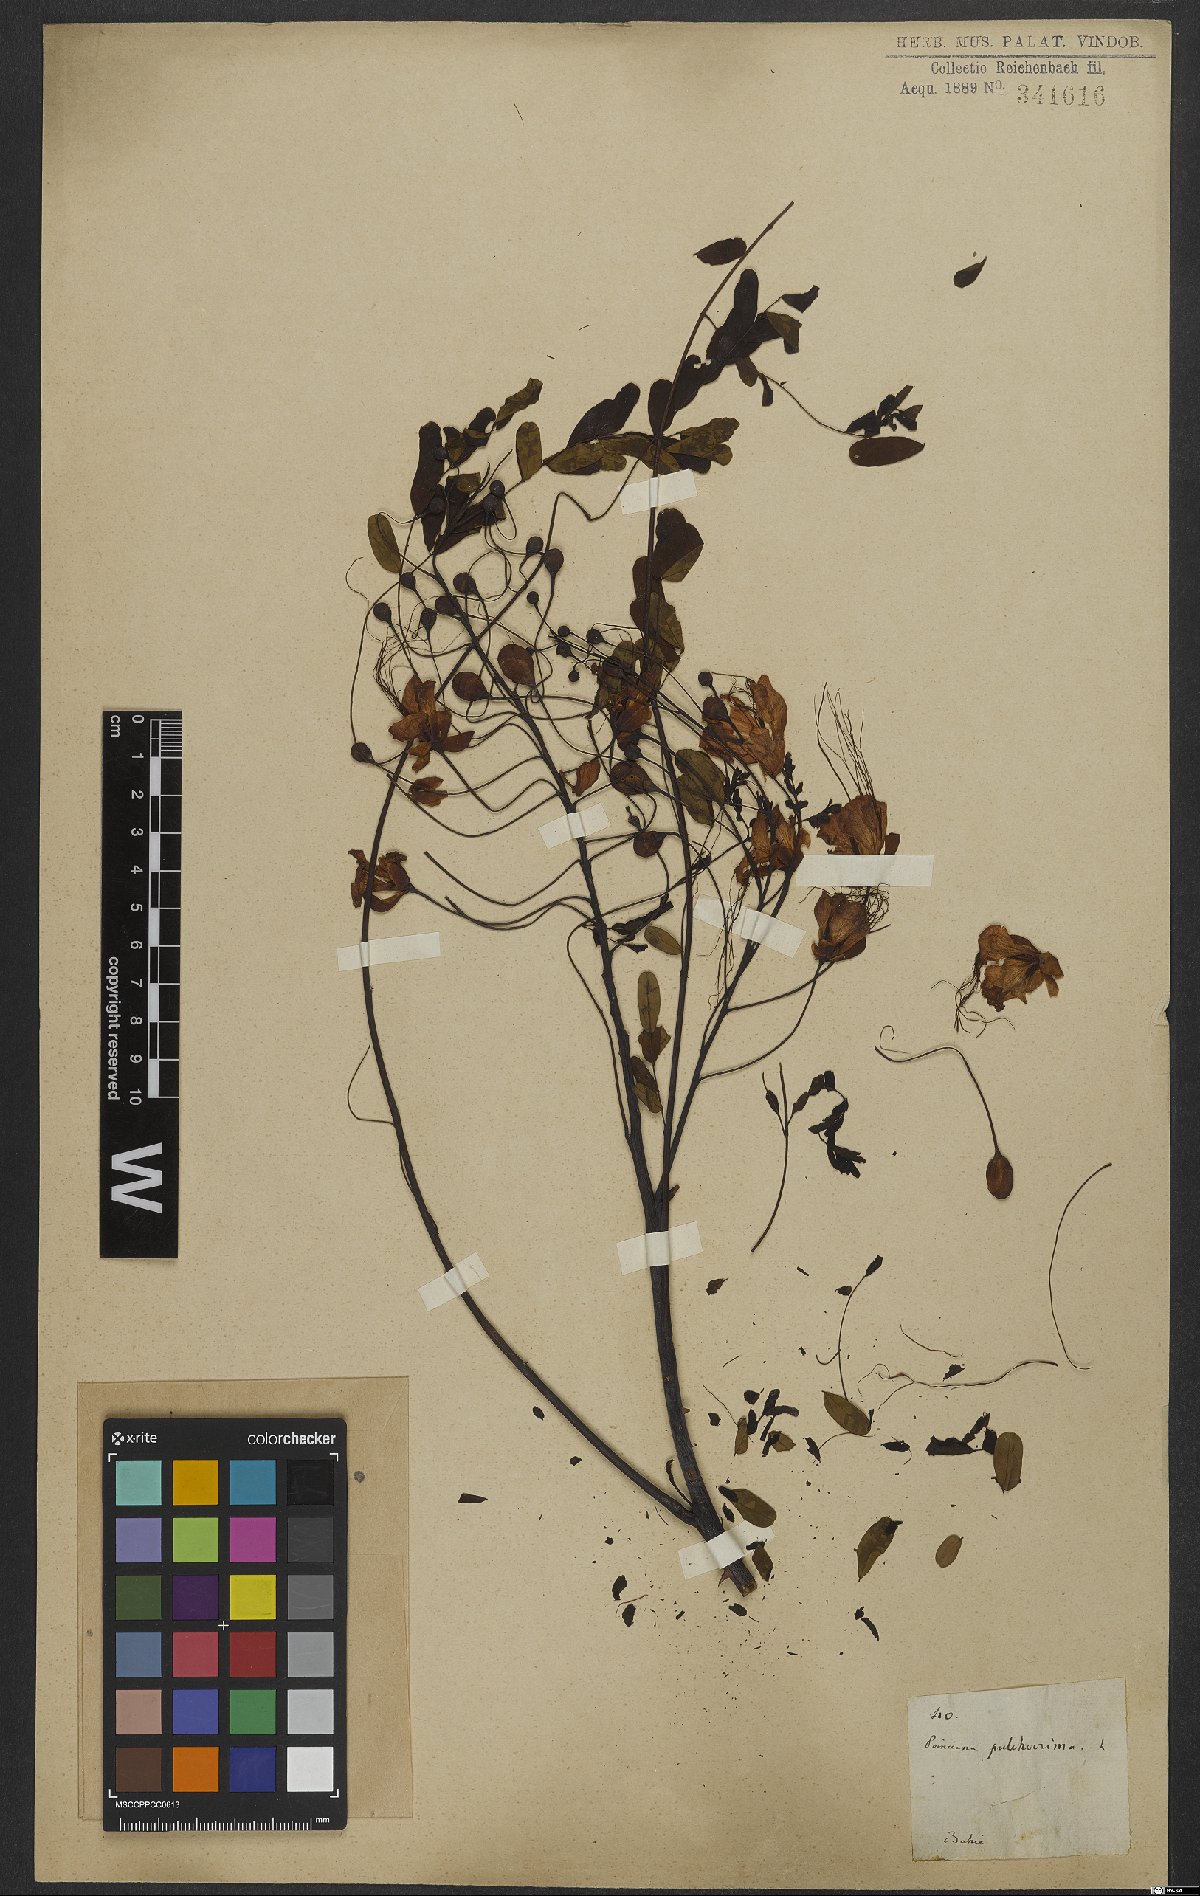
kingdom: Plantae
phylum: Tracheophyta
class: Magnoliopsida
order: Fabales
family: Fabaceae
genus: Caesalpinia
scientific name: Caesalpinia pulcherrima
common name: Pride-of-barbados
